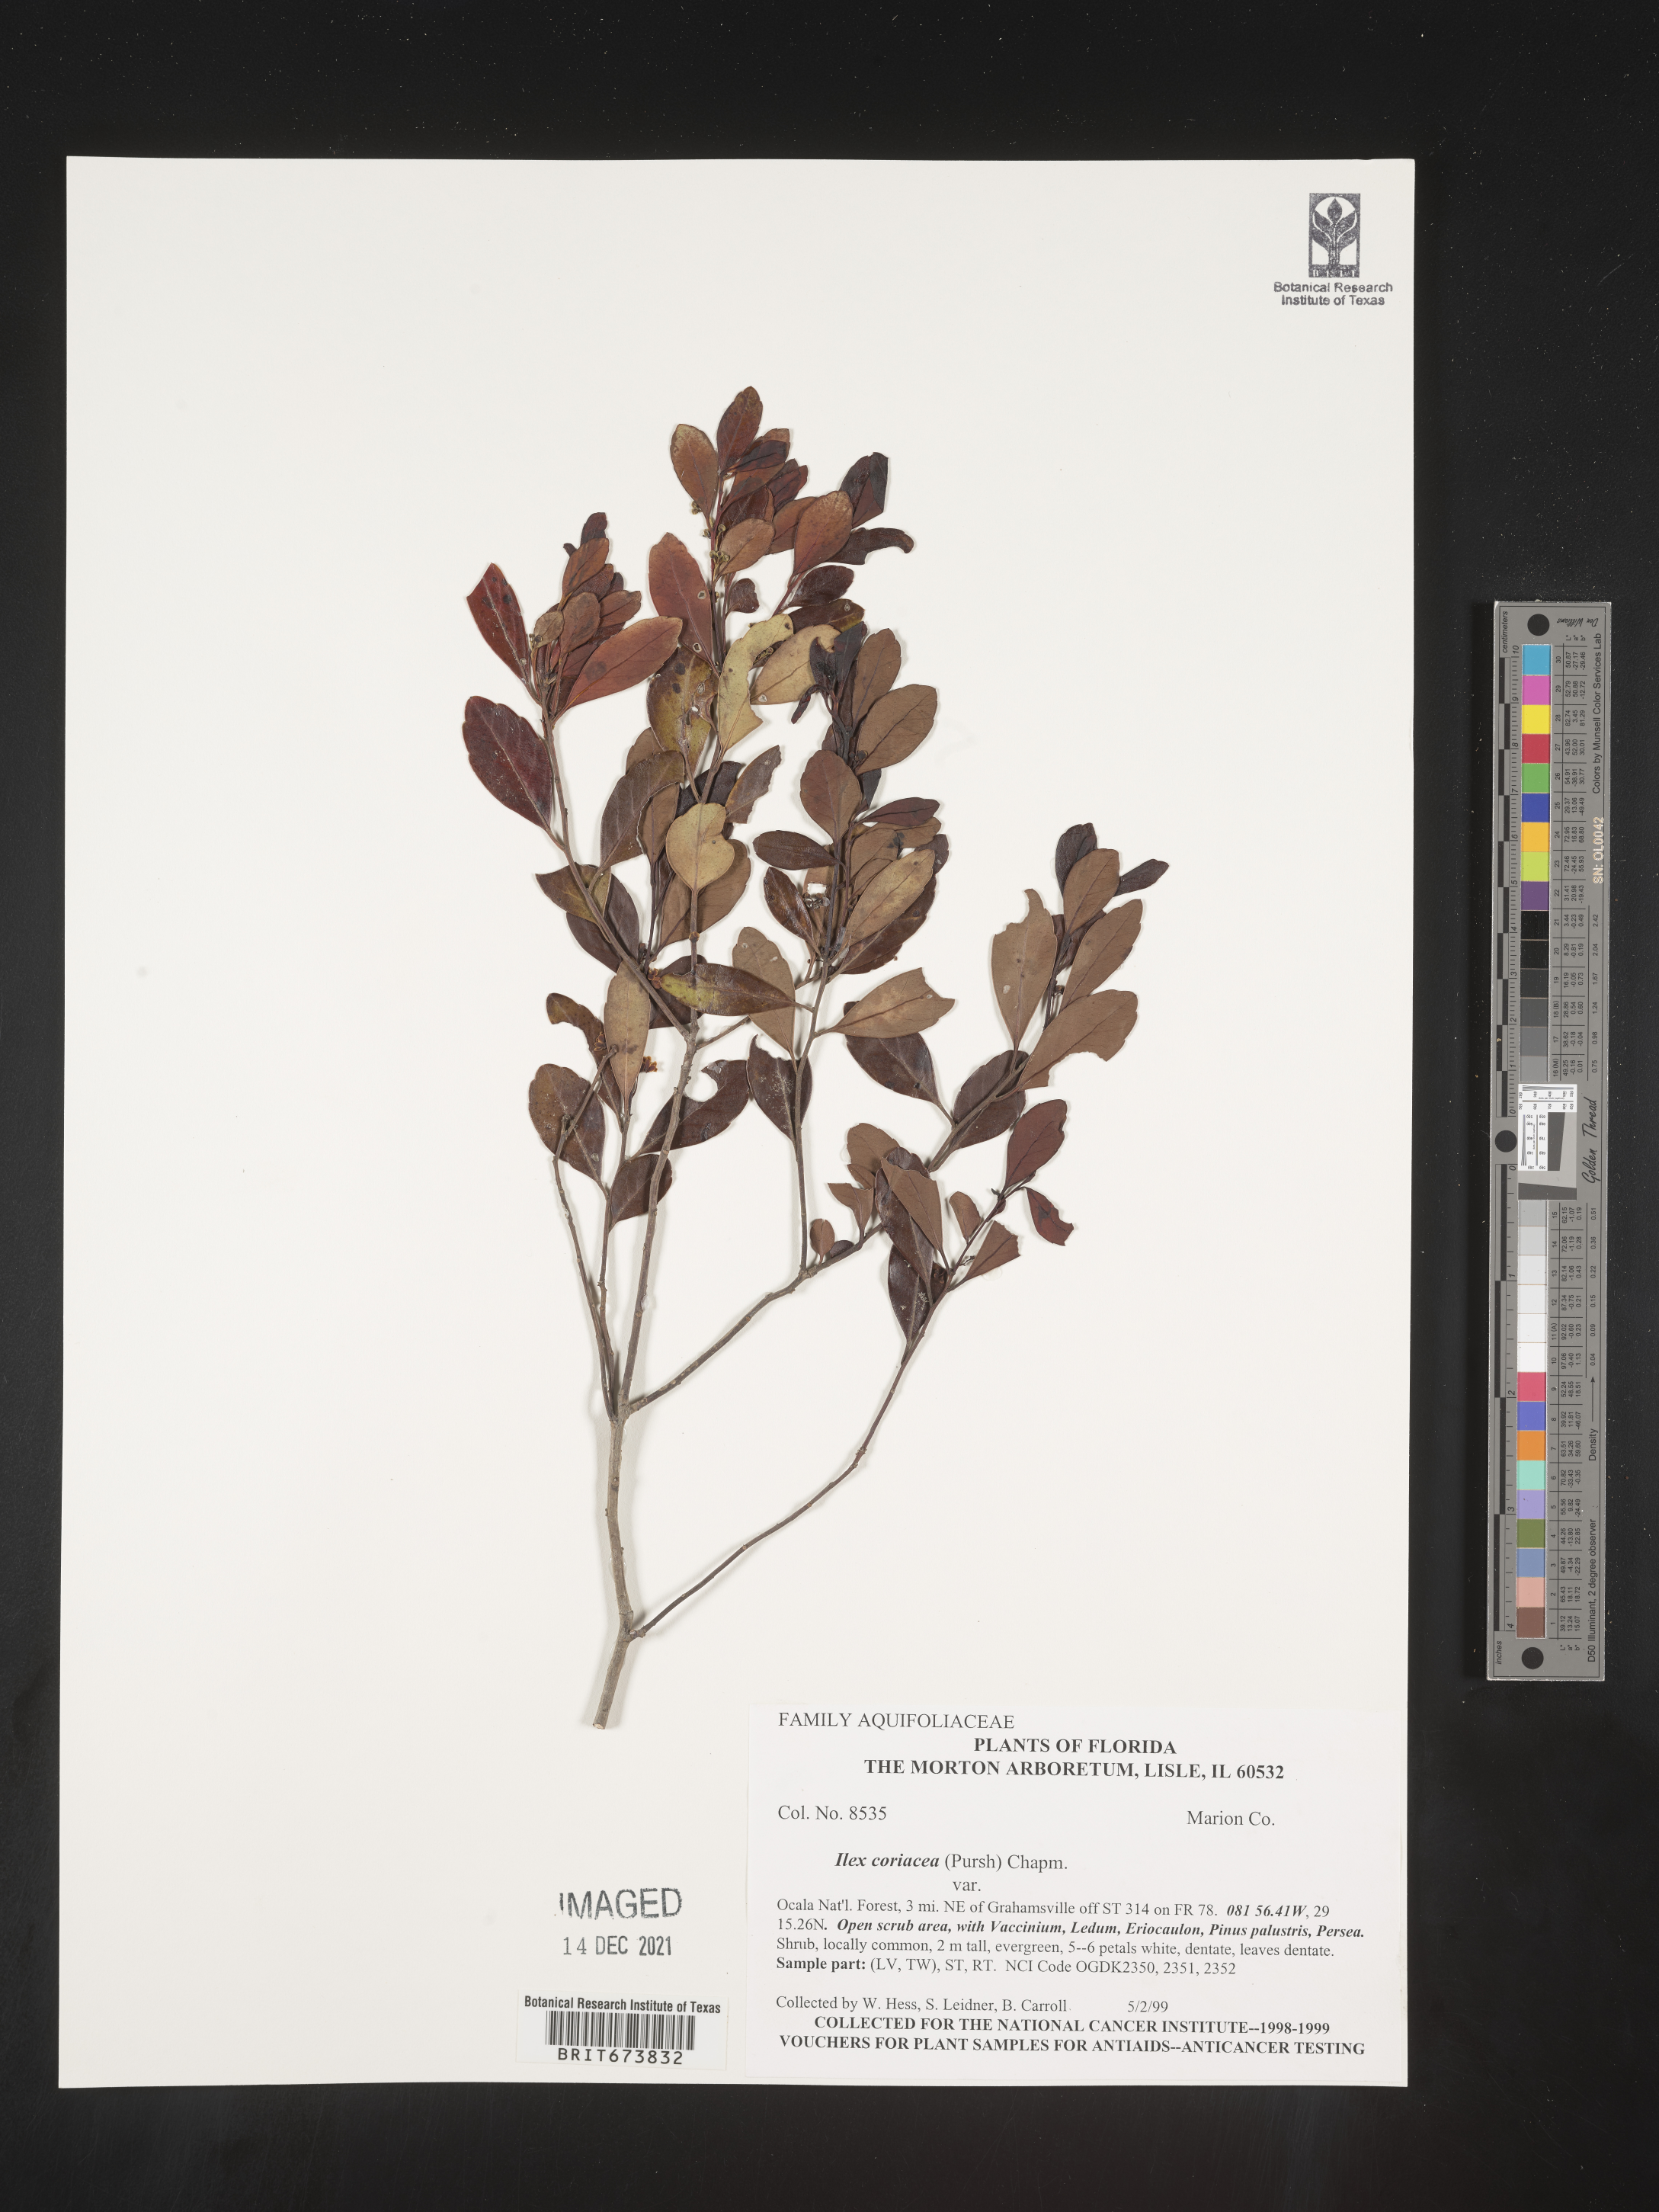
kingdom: Plantae
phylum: Tracheophyta
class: Magnoliopsida
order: Aquifoliales
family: Aquifoliaceae
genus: Ilex
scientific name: Ilex coriacea
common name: Sweet gallberry
